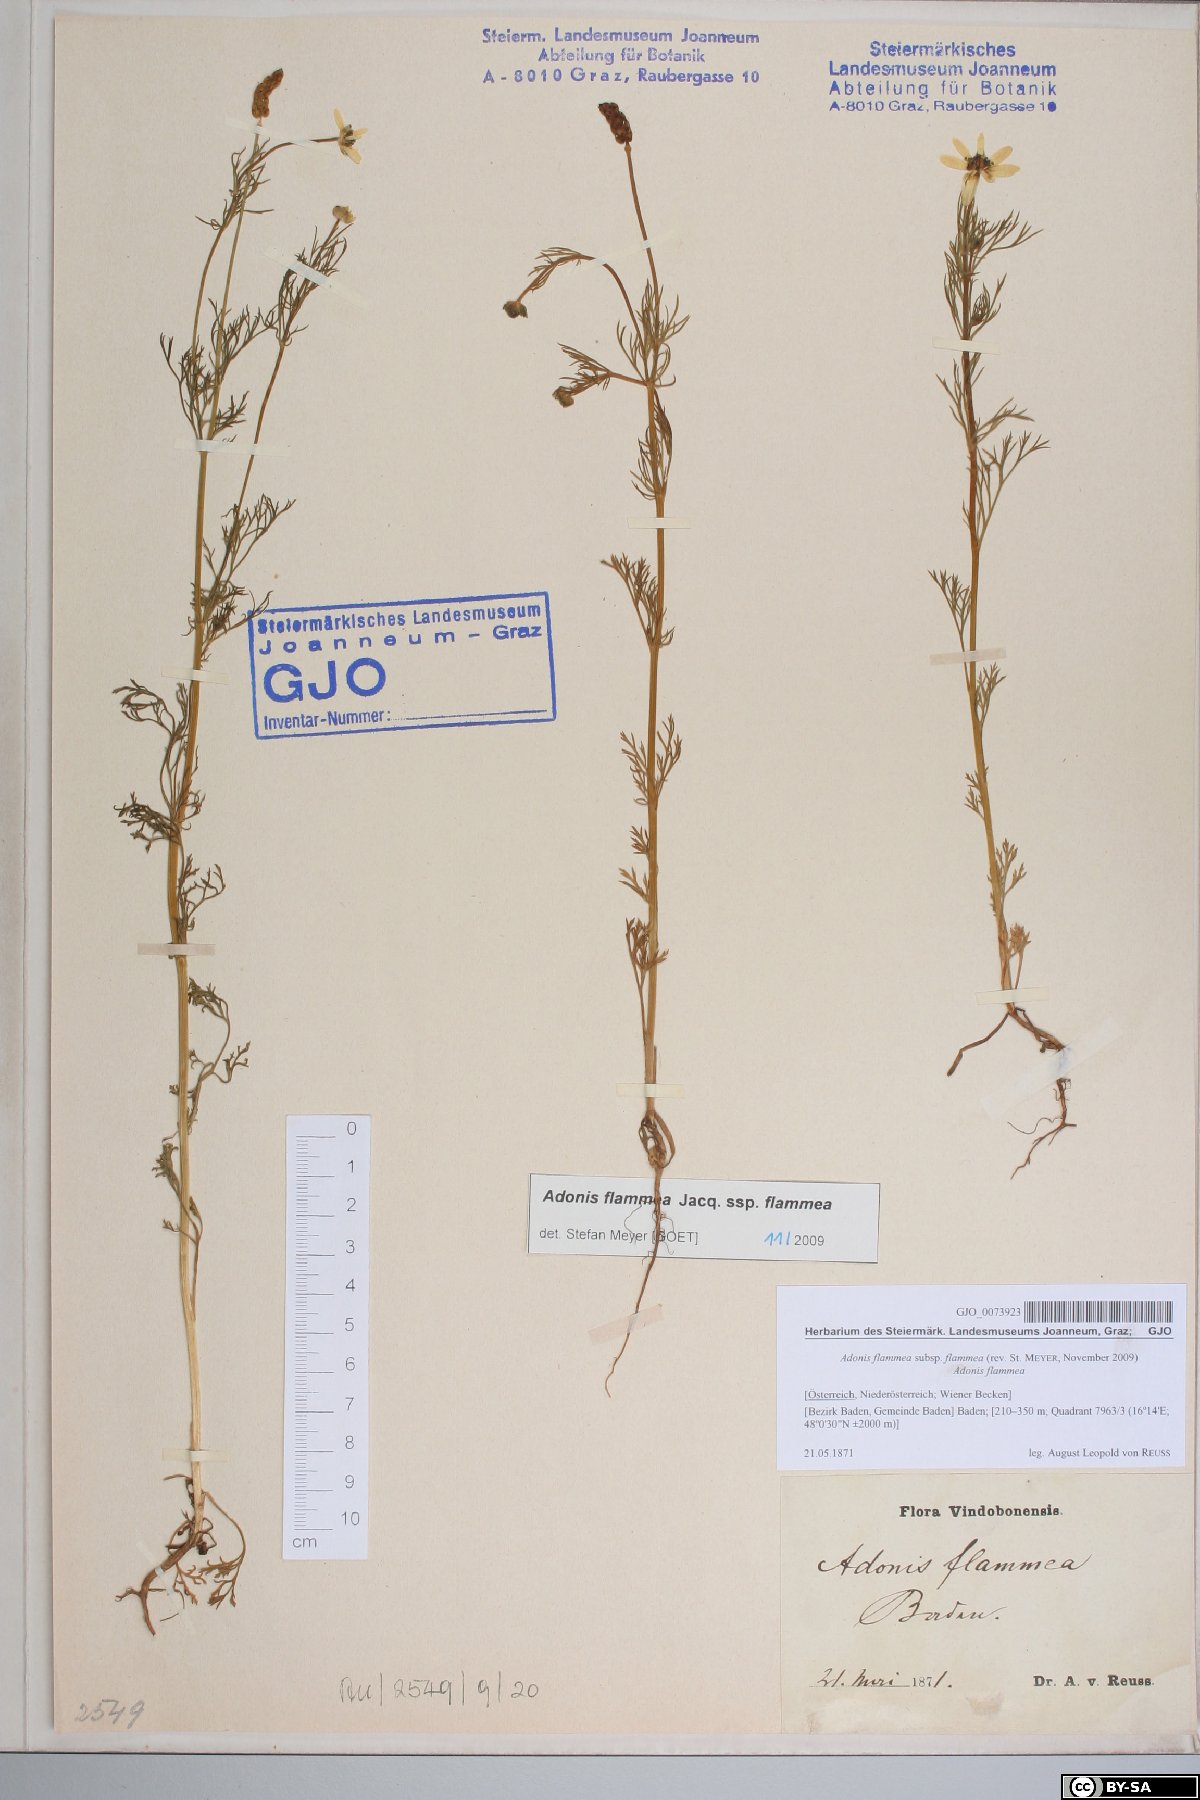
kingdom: Plantae
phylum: Tracheophyta
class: Magnoliopsida
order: Ranunculales
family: Ranunculaceae
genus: Adonis
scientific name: Adonis flammea
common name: Large pheasant's-eye
